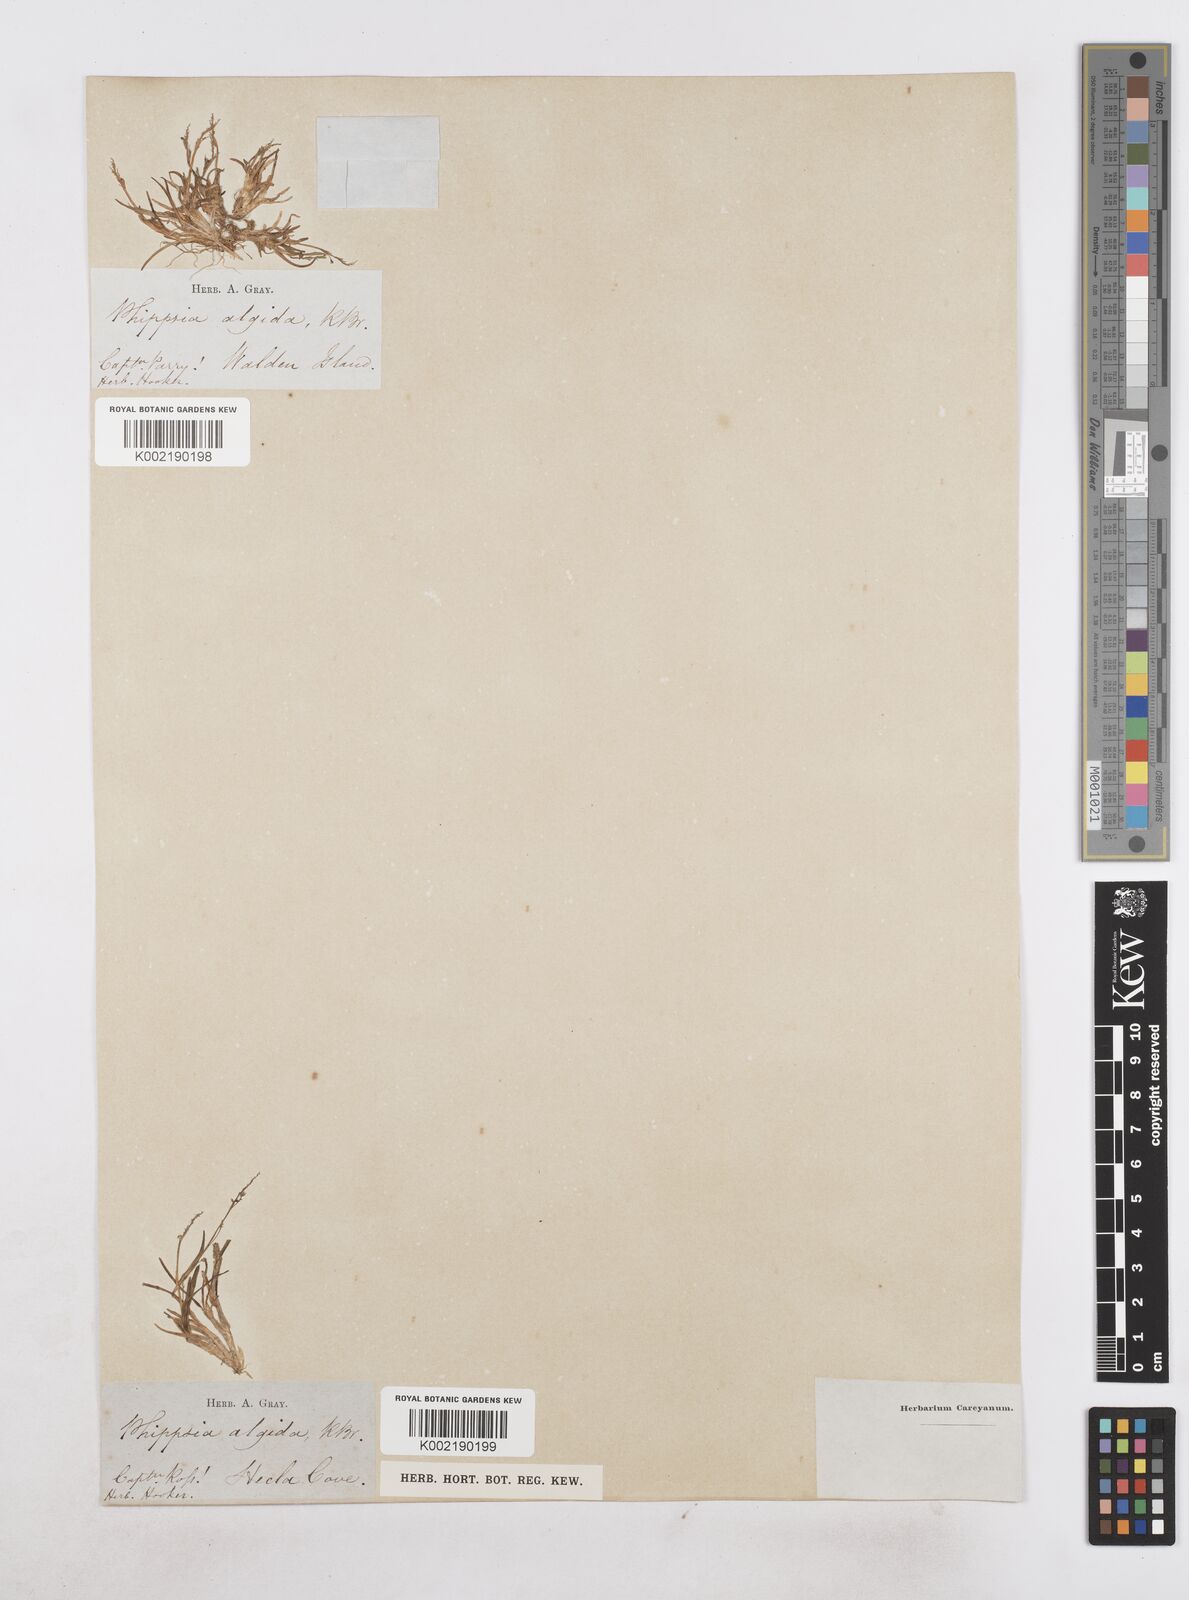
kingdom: Plantae
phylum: Tracheophyta
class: Liliopsida
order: Poales
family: Poaceae
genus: Phippsia
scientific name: Phippsia algida
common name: Ice grass
